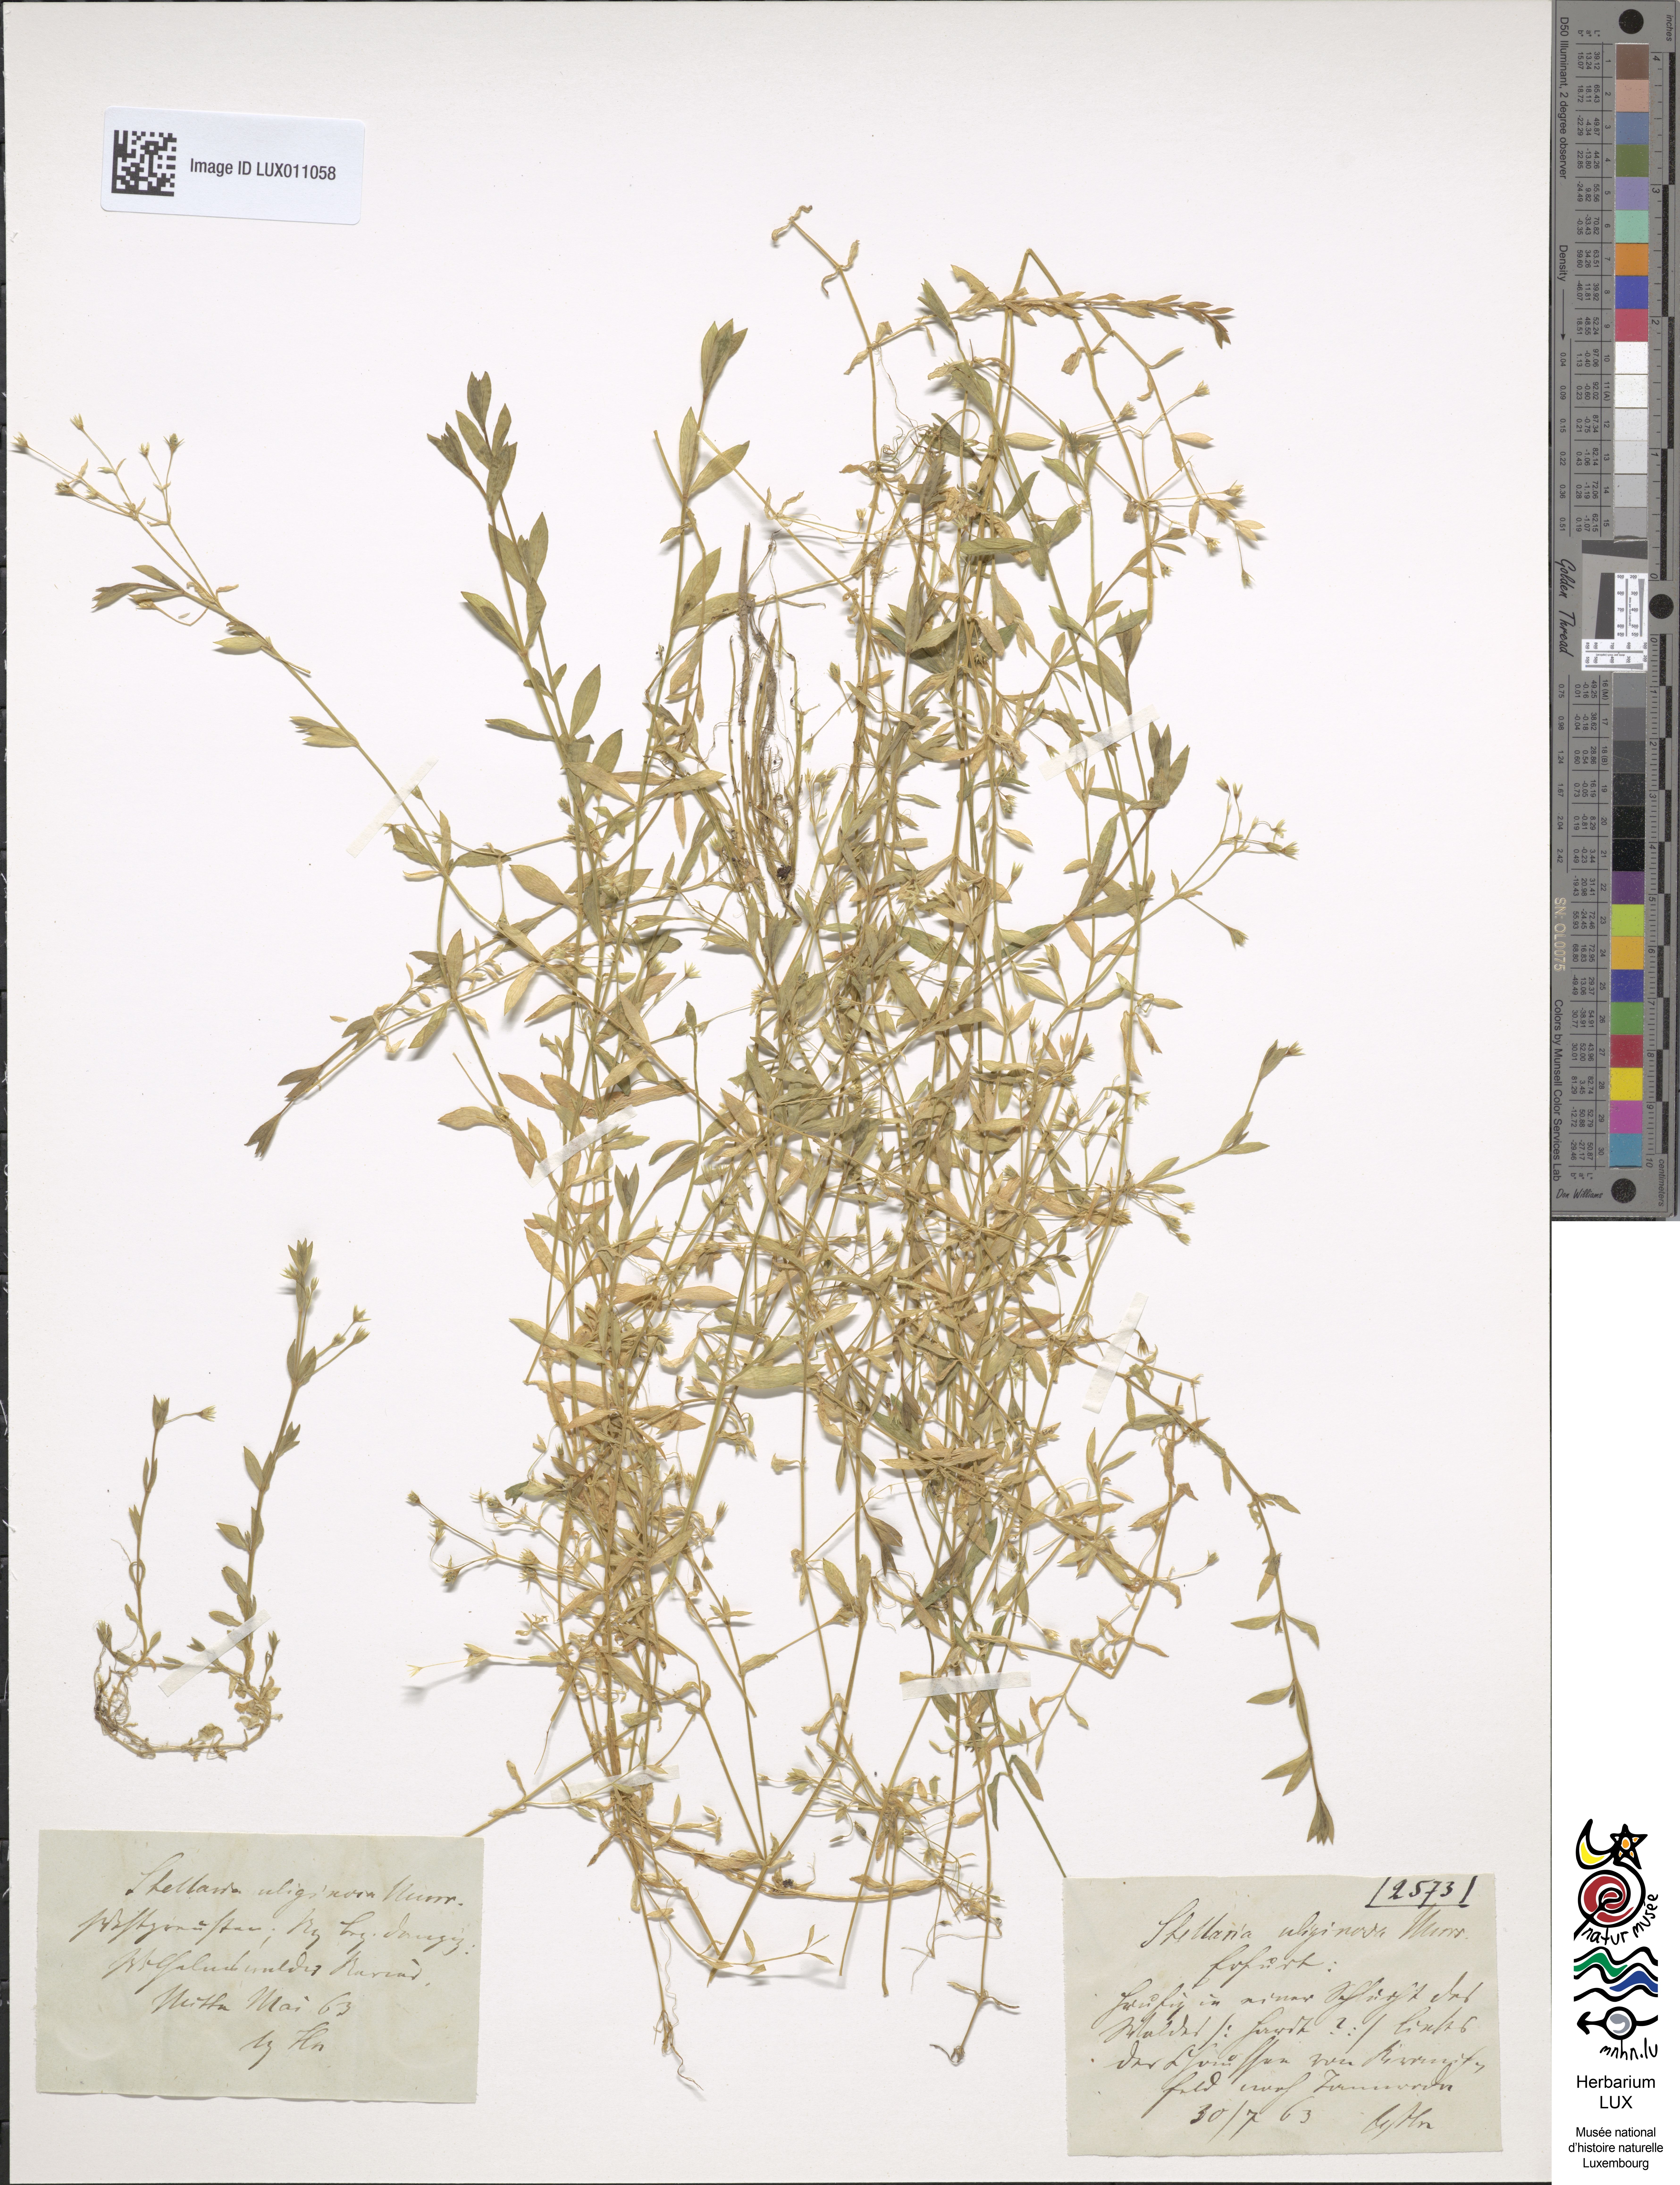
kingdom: Plantae
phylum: Tracheophyta
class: Magnoliopsida
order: Caryophyllales
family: Caryophyllaceae
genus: Stellaria
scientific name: Stellaria alsine
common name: Bog stitchwort
